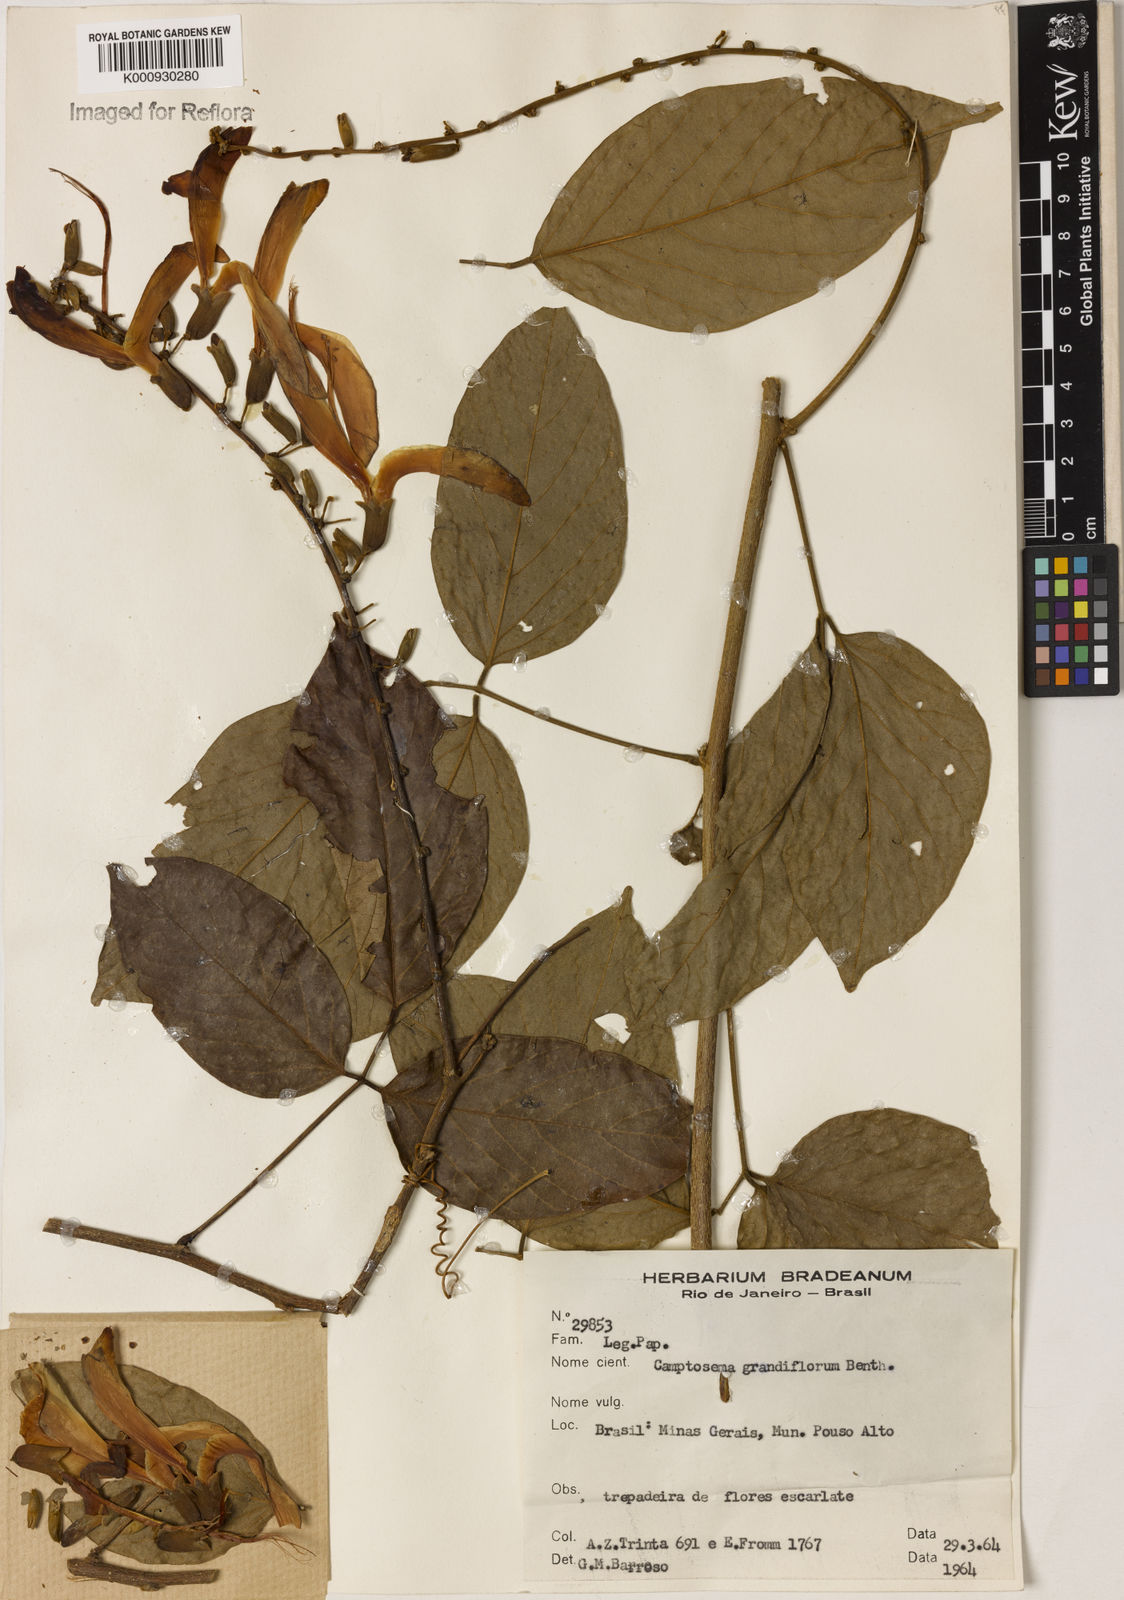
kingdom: Plantae
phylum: Tracheophyta
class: Magnoliopsida
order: Fabales
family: Fabaceae
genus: Camptosema
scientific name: Camptosema spectabile
